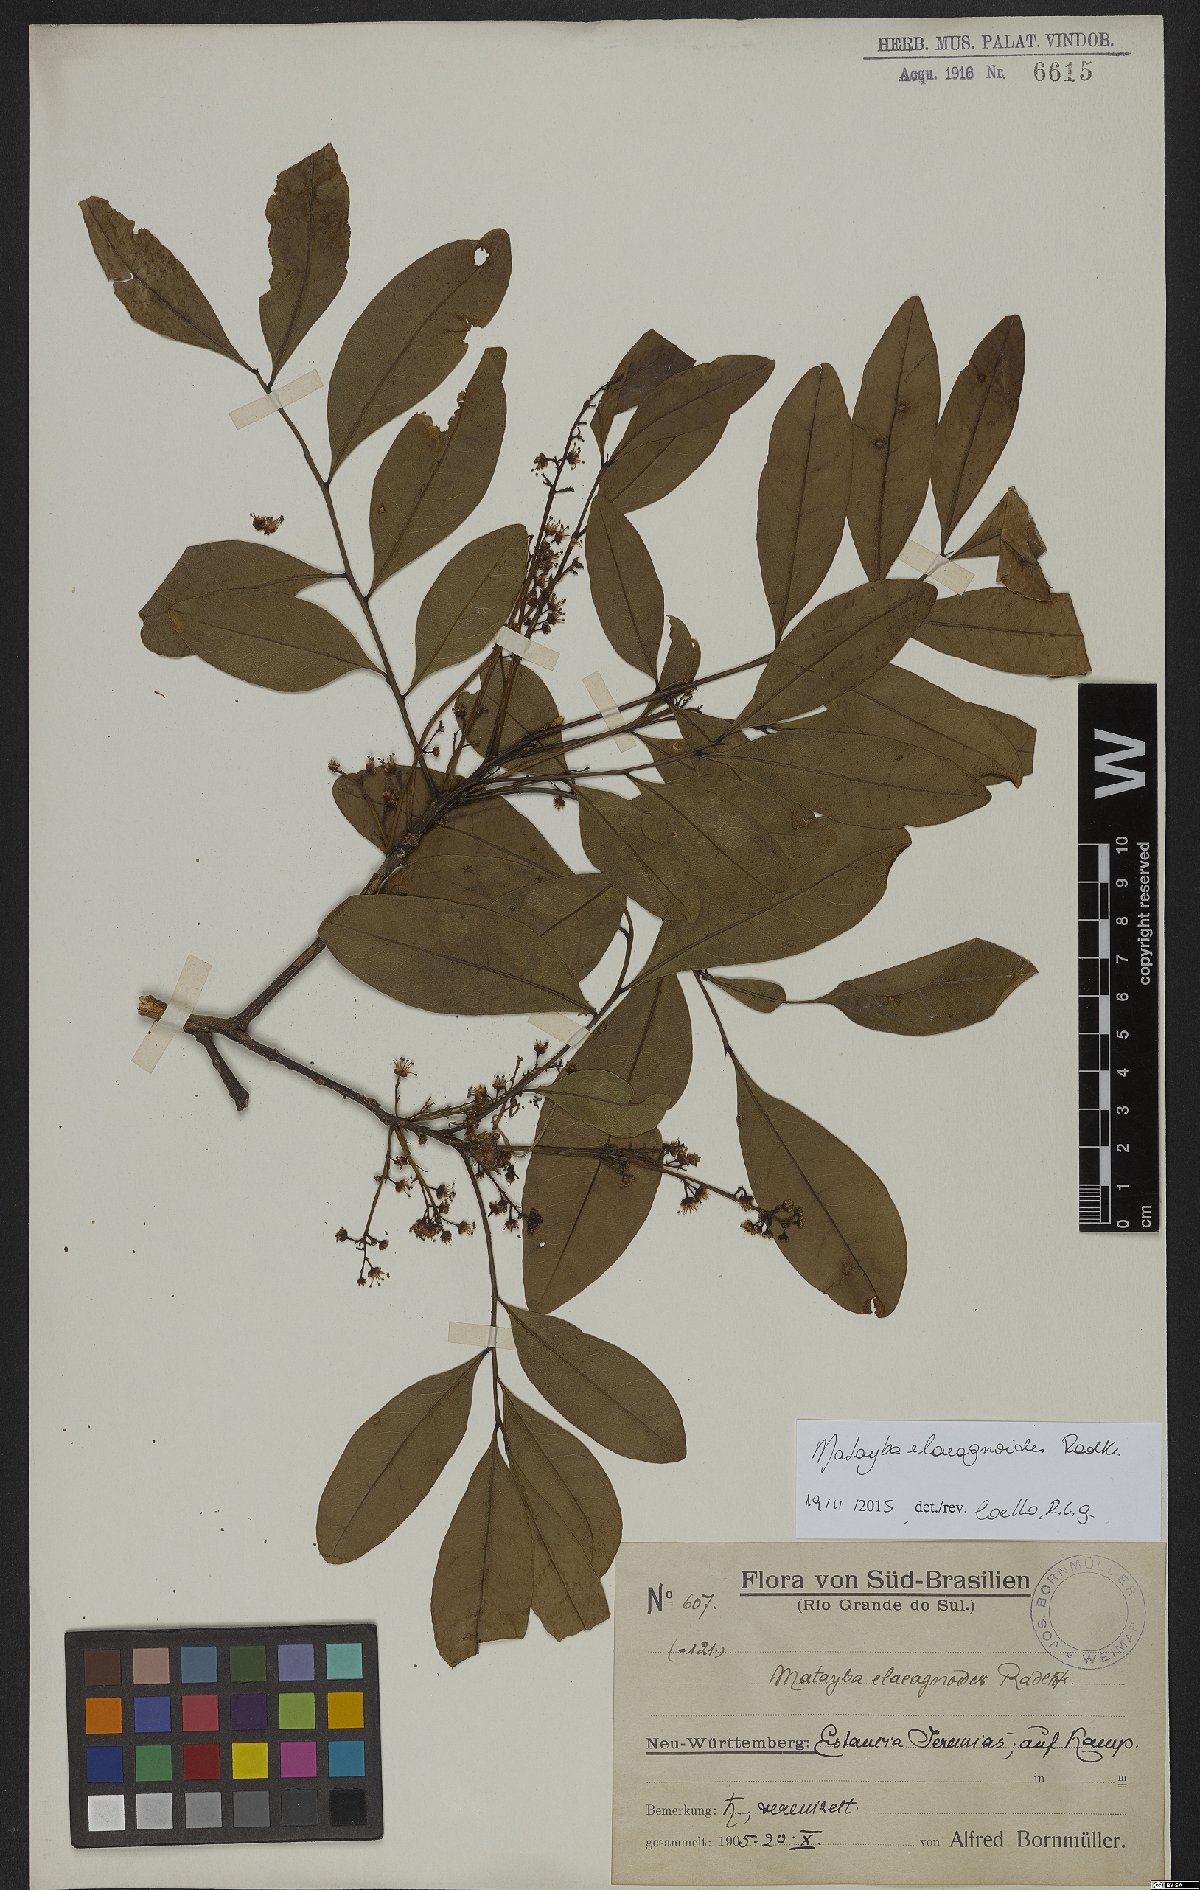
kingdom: Plantae
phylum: Tracheophyta
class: Magnoliopsida
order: Sapindales
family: Sapindaceae
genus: Matayba
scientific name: Matayba elaeagnoides
